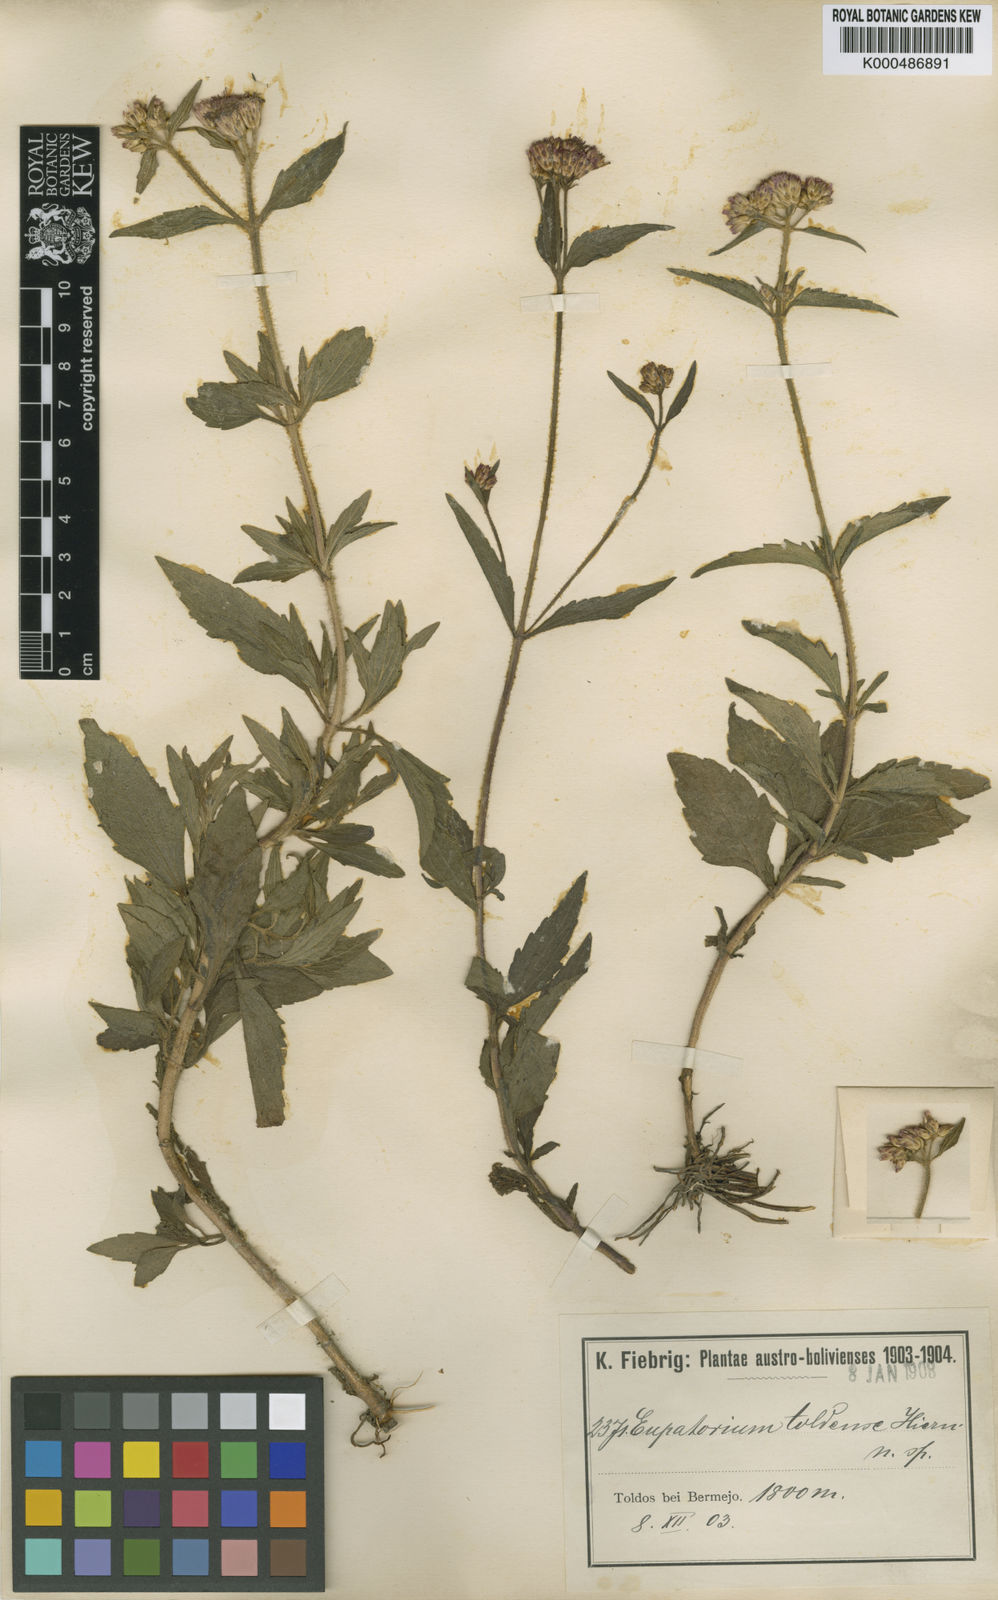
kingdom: Plantae
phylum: Tracheophyta
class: Magnoliopsida
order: Asterales
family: Asteraceae
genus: Chromolaena
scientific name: Chromolaena toldensis
